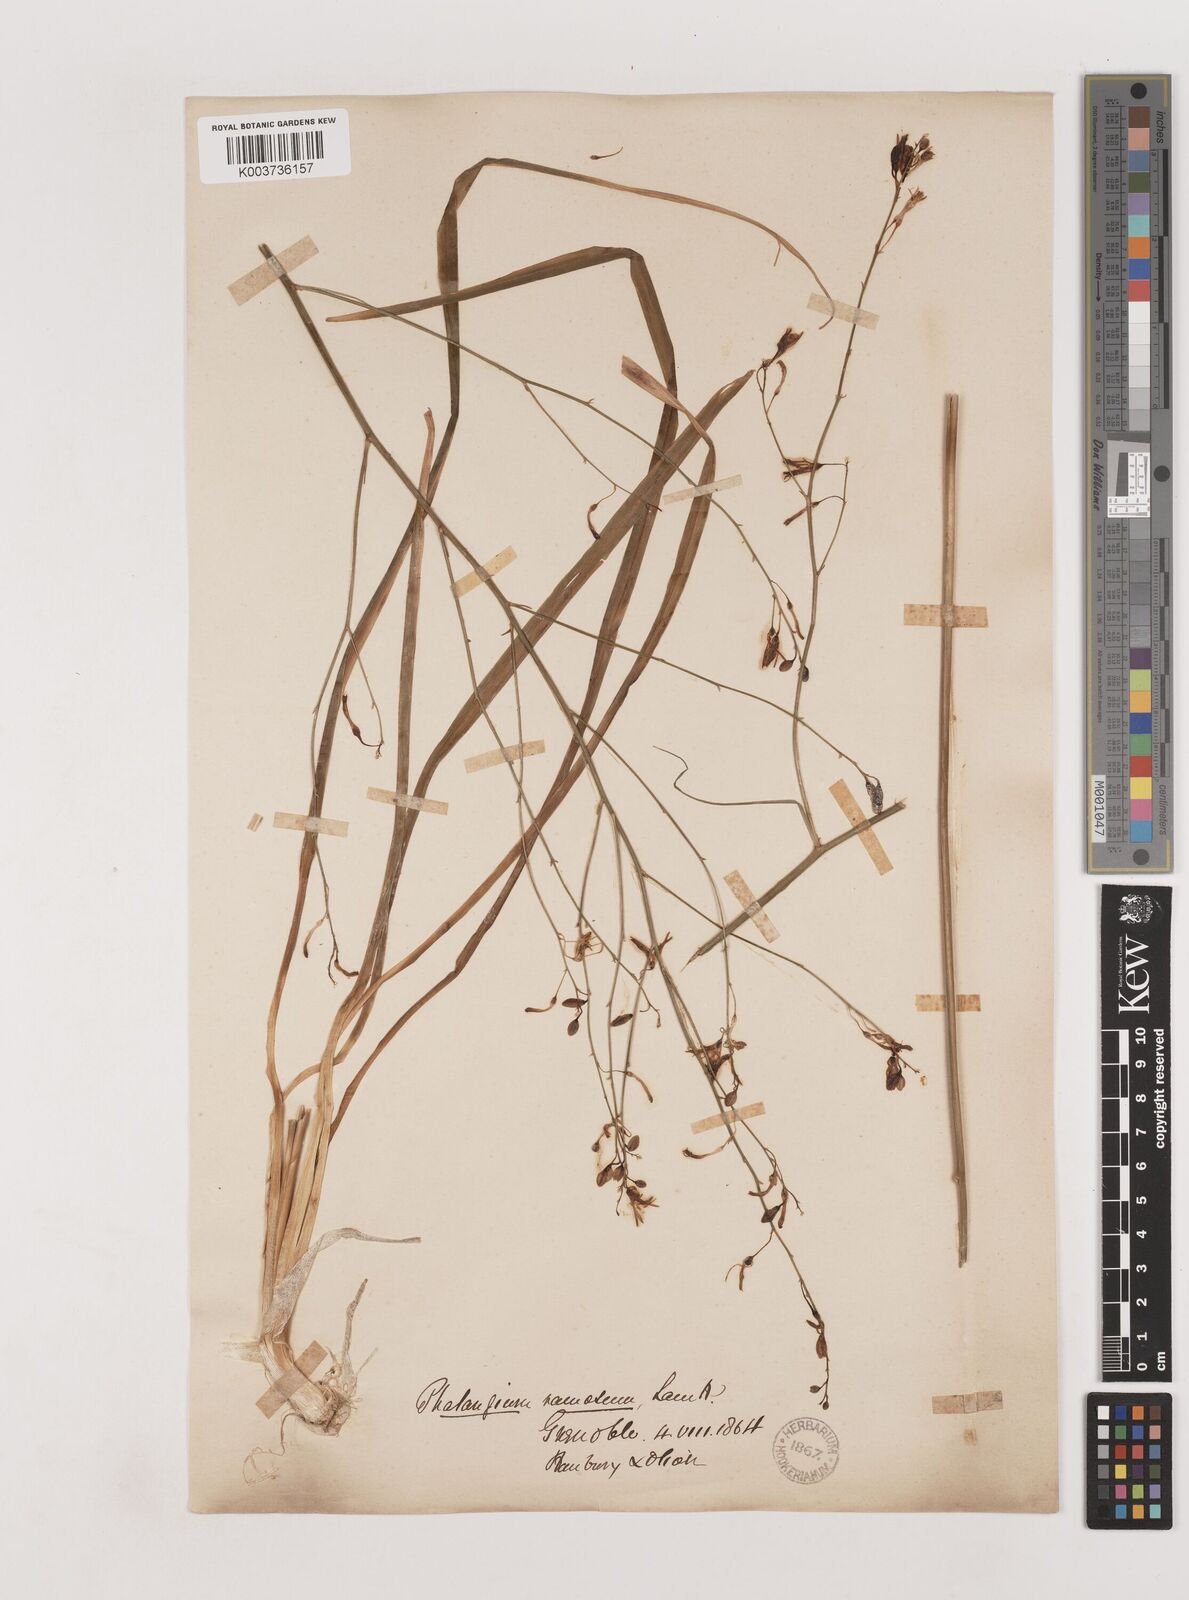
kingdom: Plantae
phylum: Tracheophyta
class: Liliopsida
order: Asparagales
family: Asparagaceae
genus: Anthericum
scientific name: Anthericum ramosum
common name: Branched st. bernard's-lily
